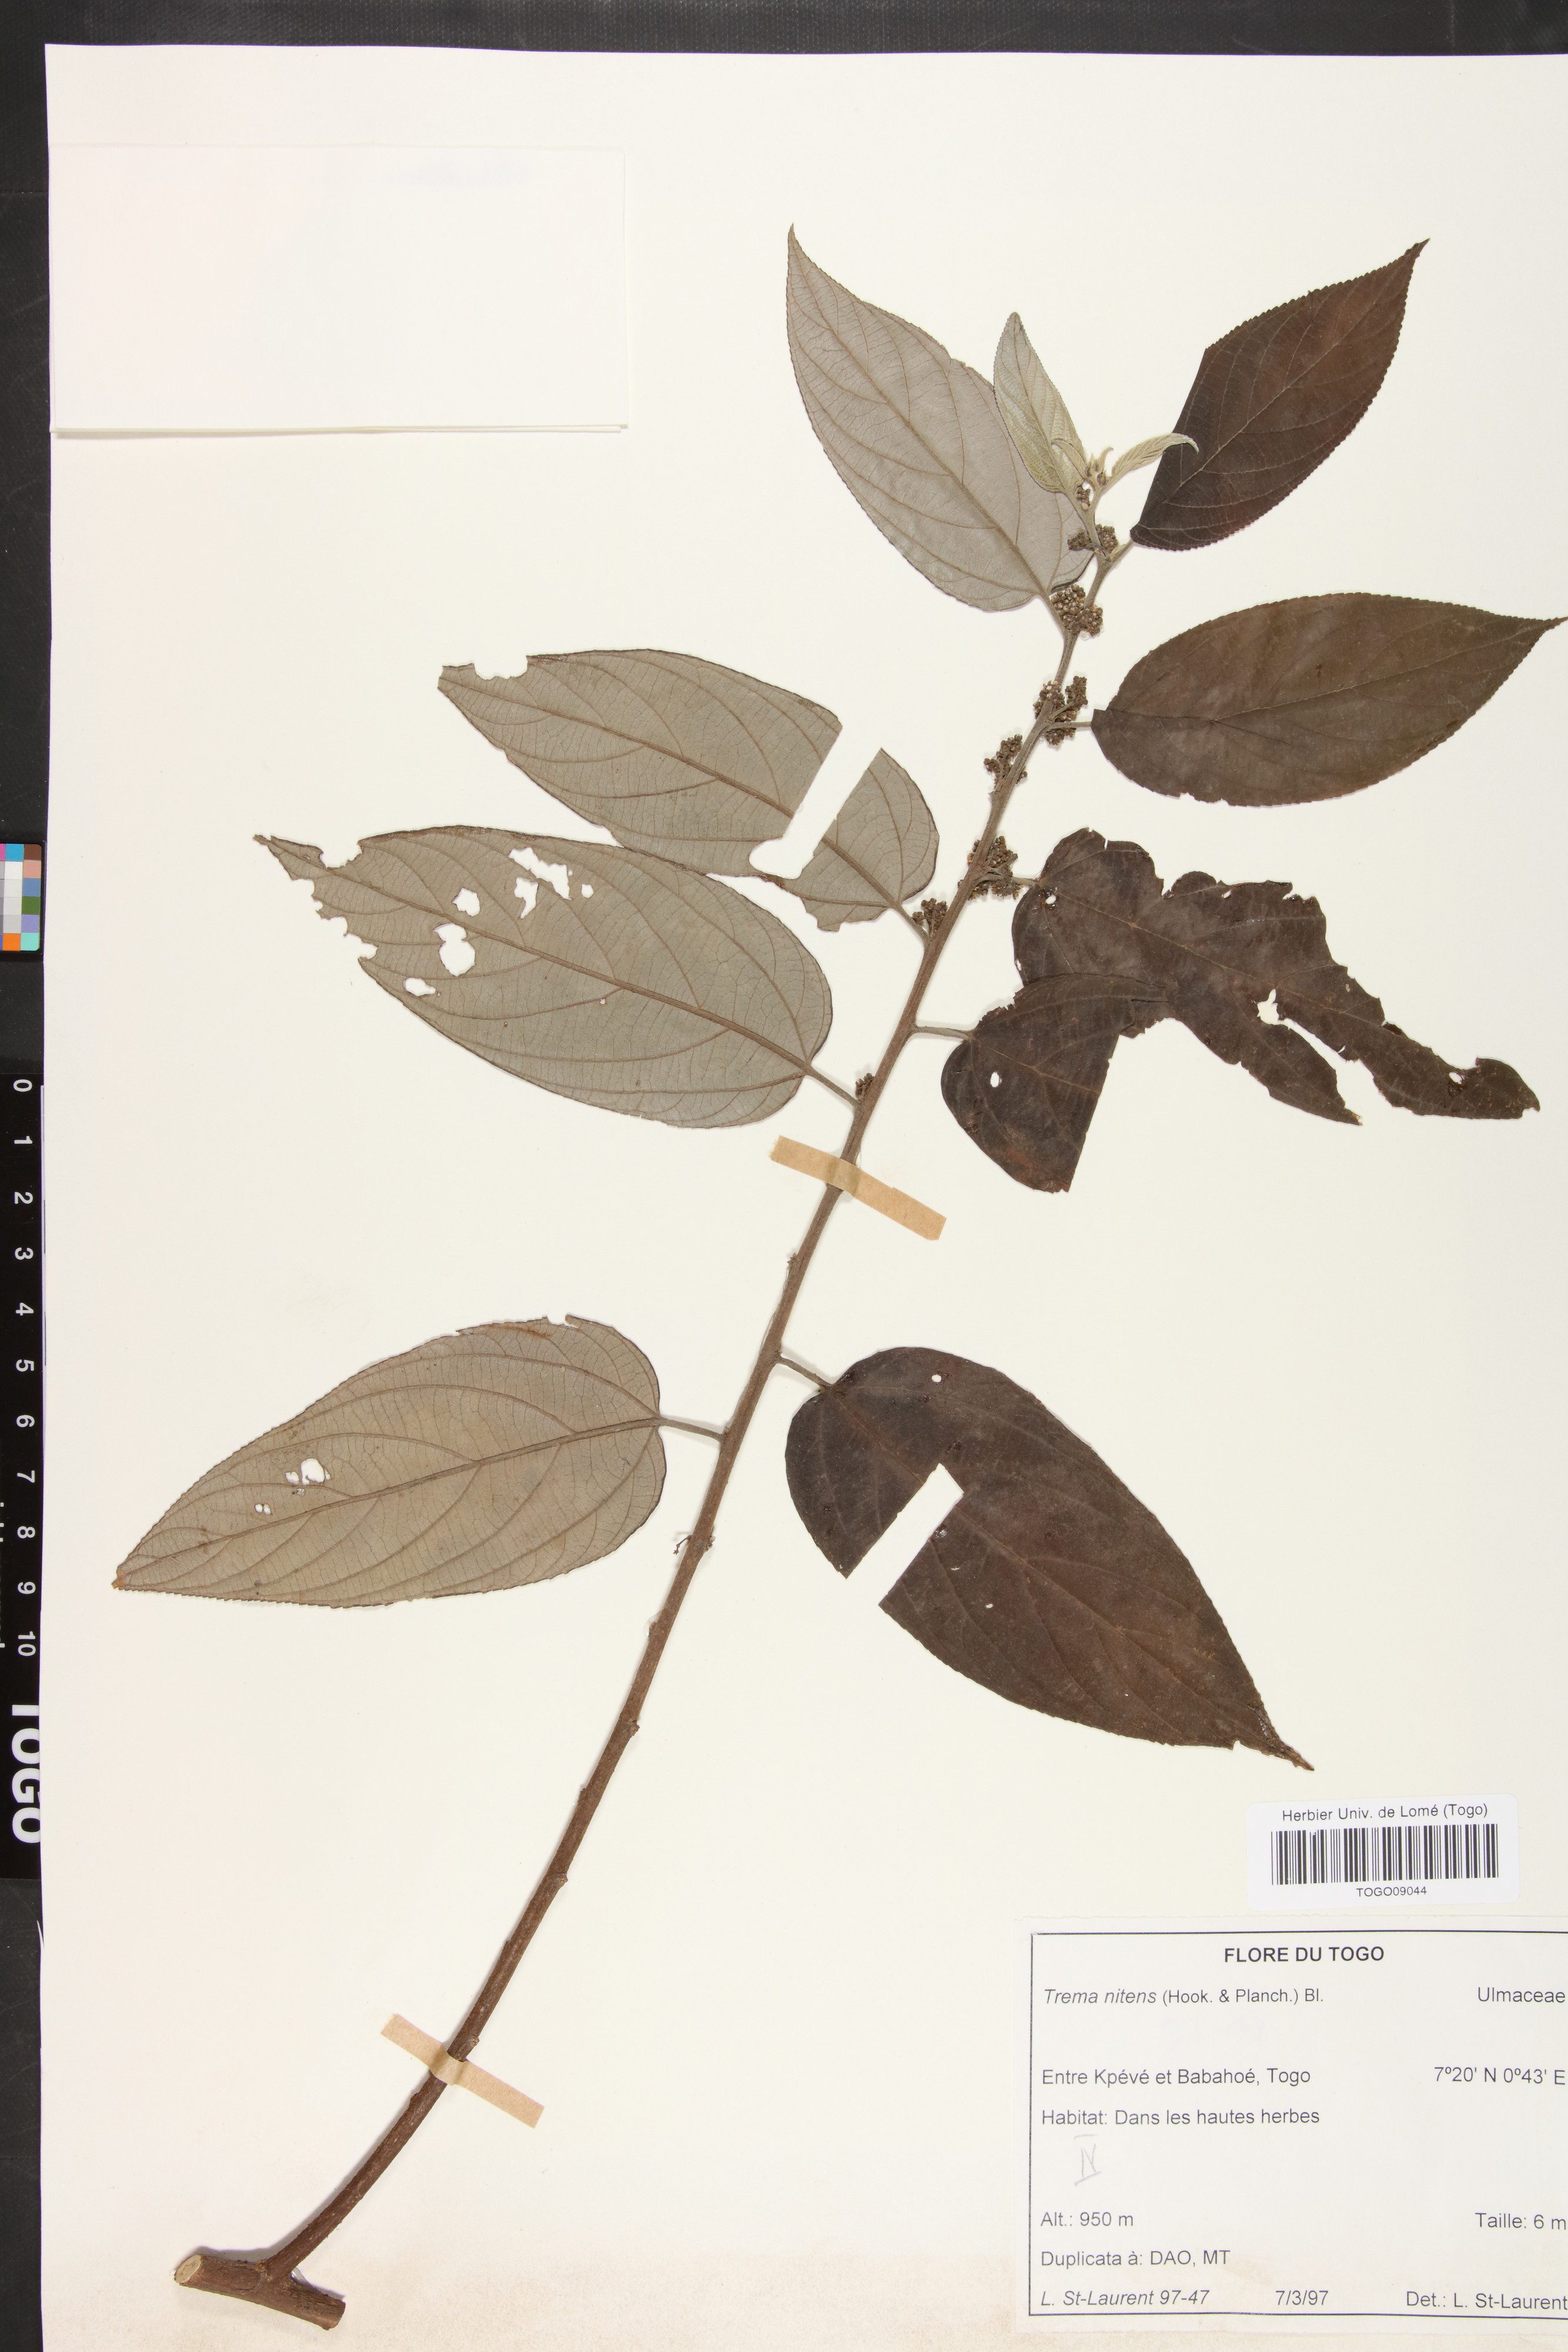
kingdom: Plantae
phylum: Tracheophyta
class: Magnoliopsida
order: Rosales
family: Cannabaceae
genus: Trema
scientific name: Trema orientale
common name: Indian charcoal tree
